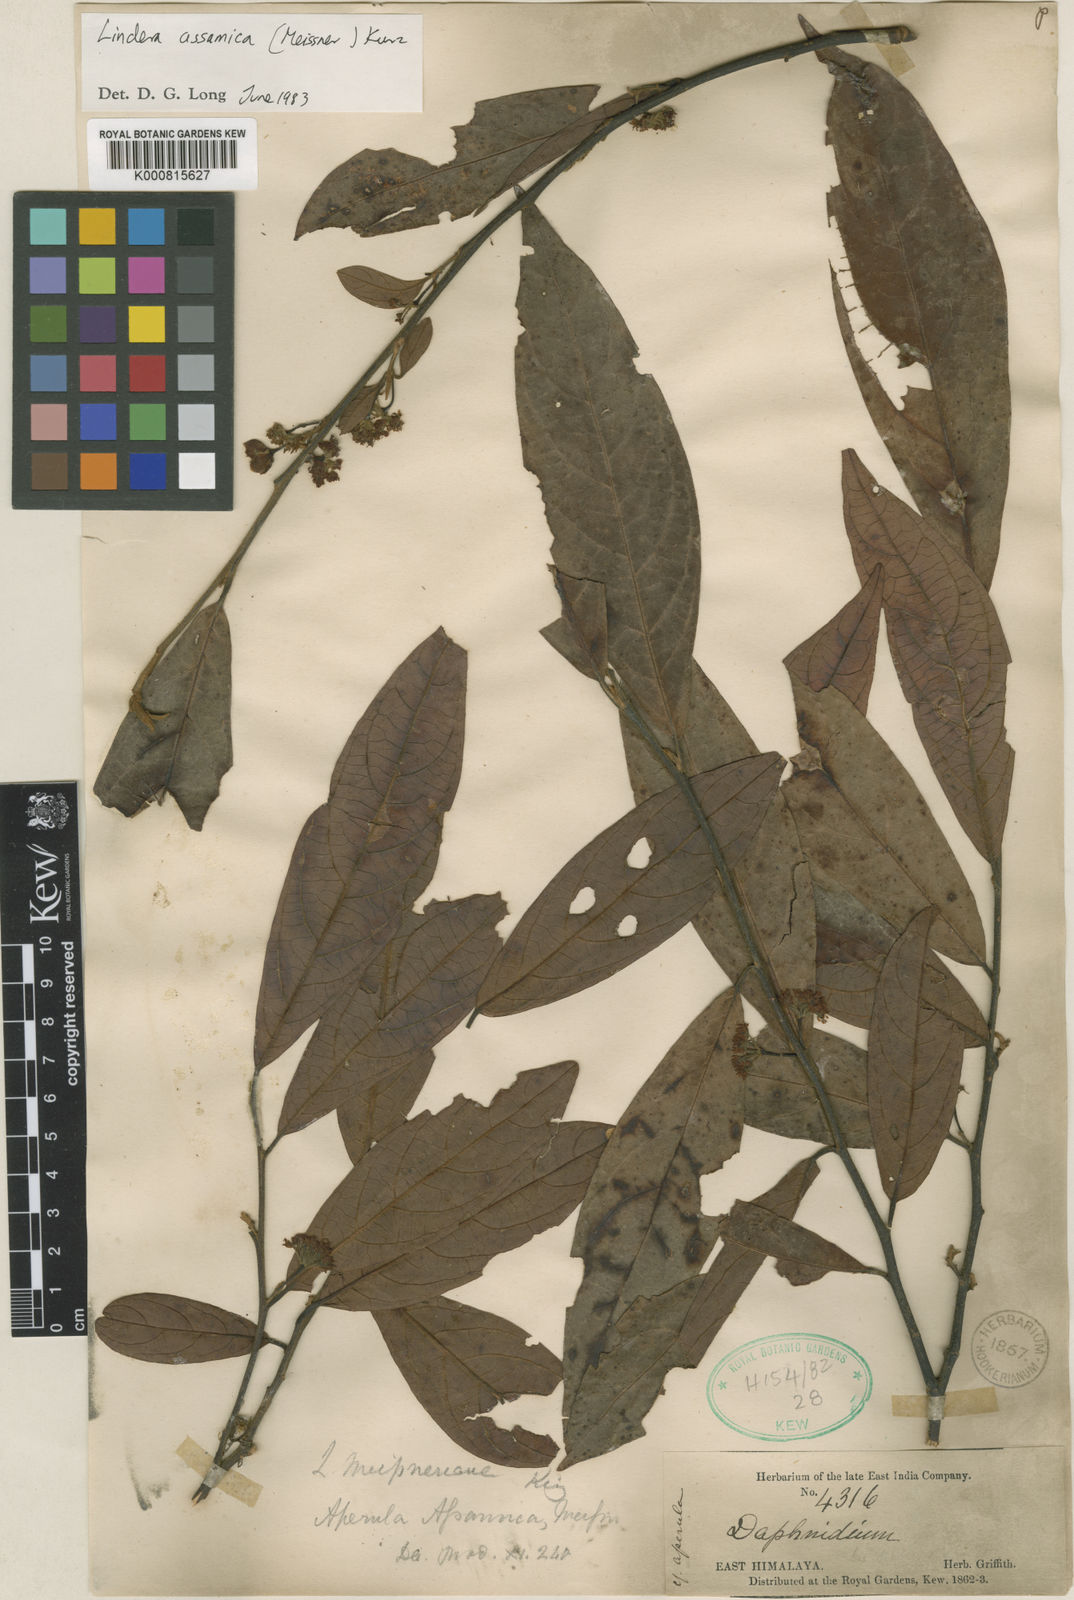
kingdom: Plantae
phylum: Tracheophyta
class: Magnoliopsida
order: Laurales
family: Lauraceae
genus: Lindera
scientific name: Lindera assamica
